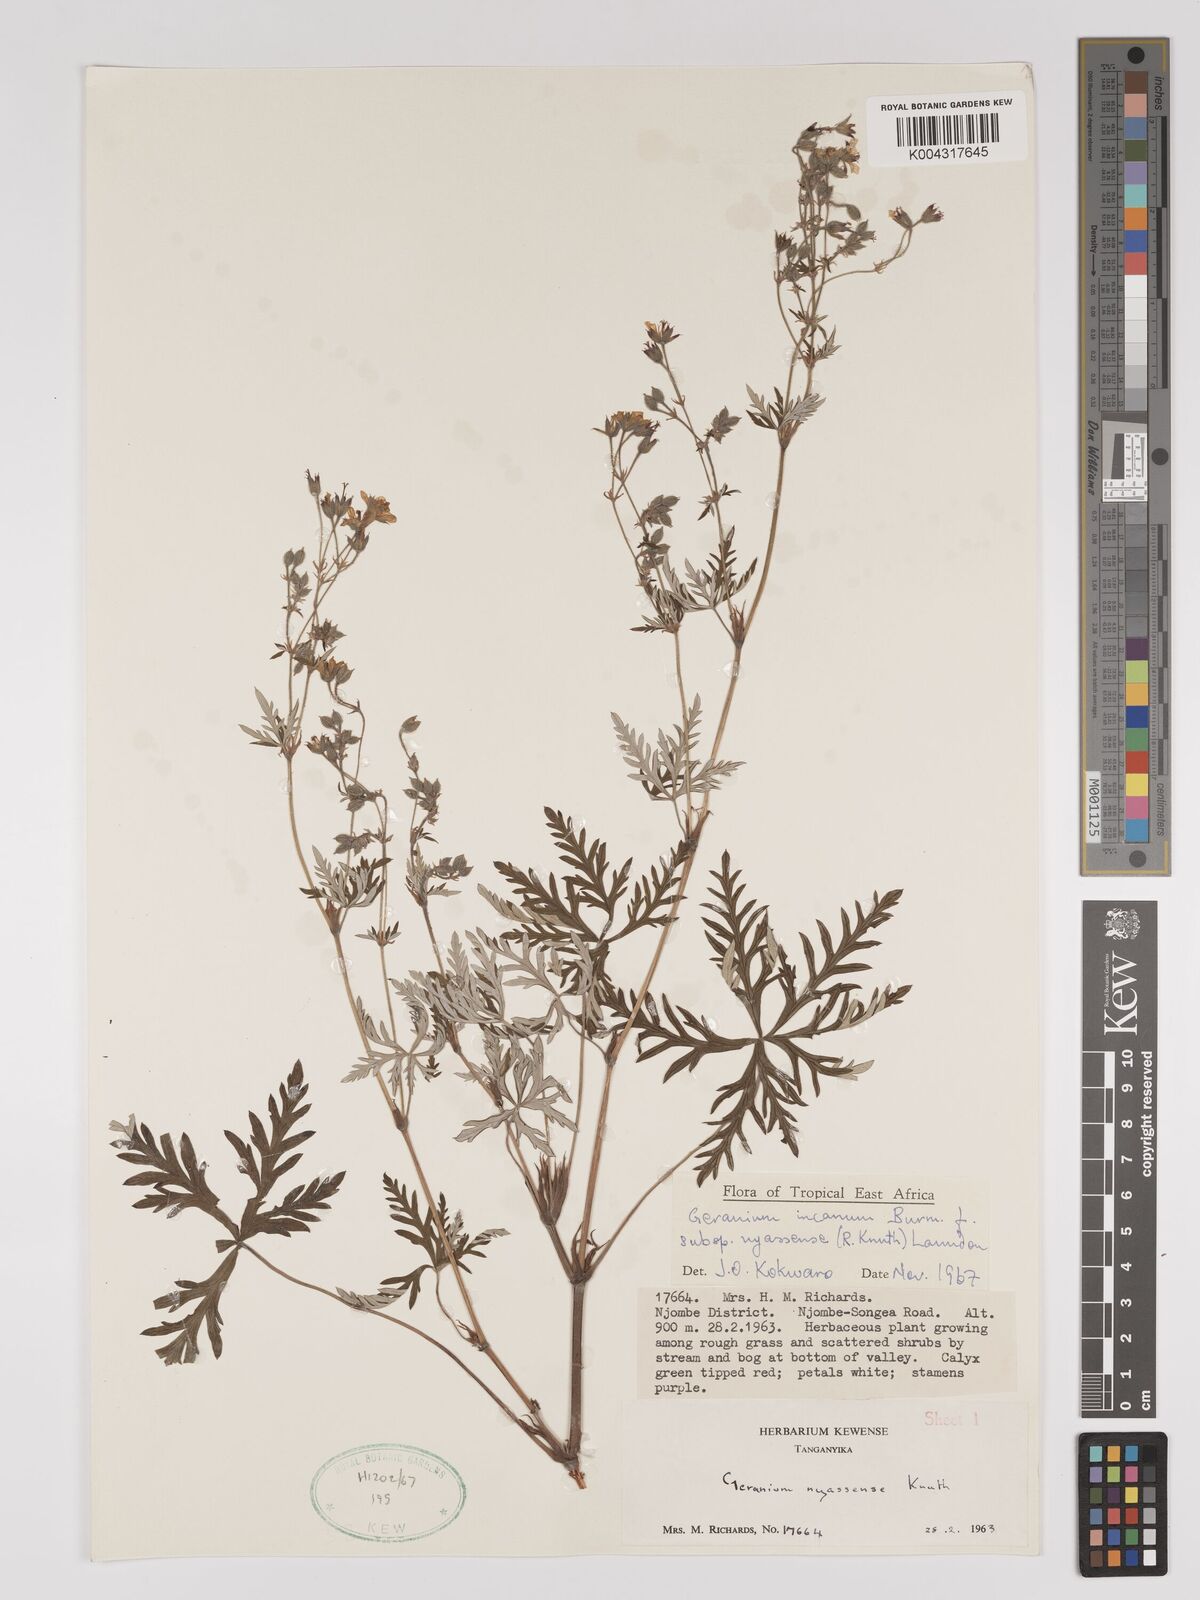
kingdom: Plantae
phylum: Tracheophyta
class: Magnoliopsida
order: Geraniales
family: Geraniaceae
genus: Geranium
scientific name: Geranium incanum
